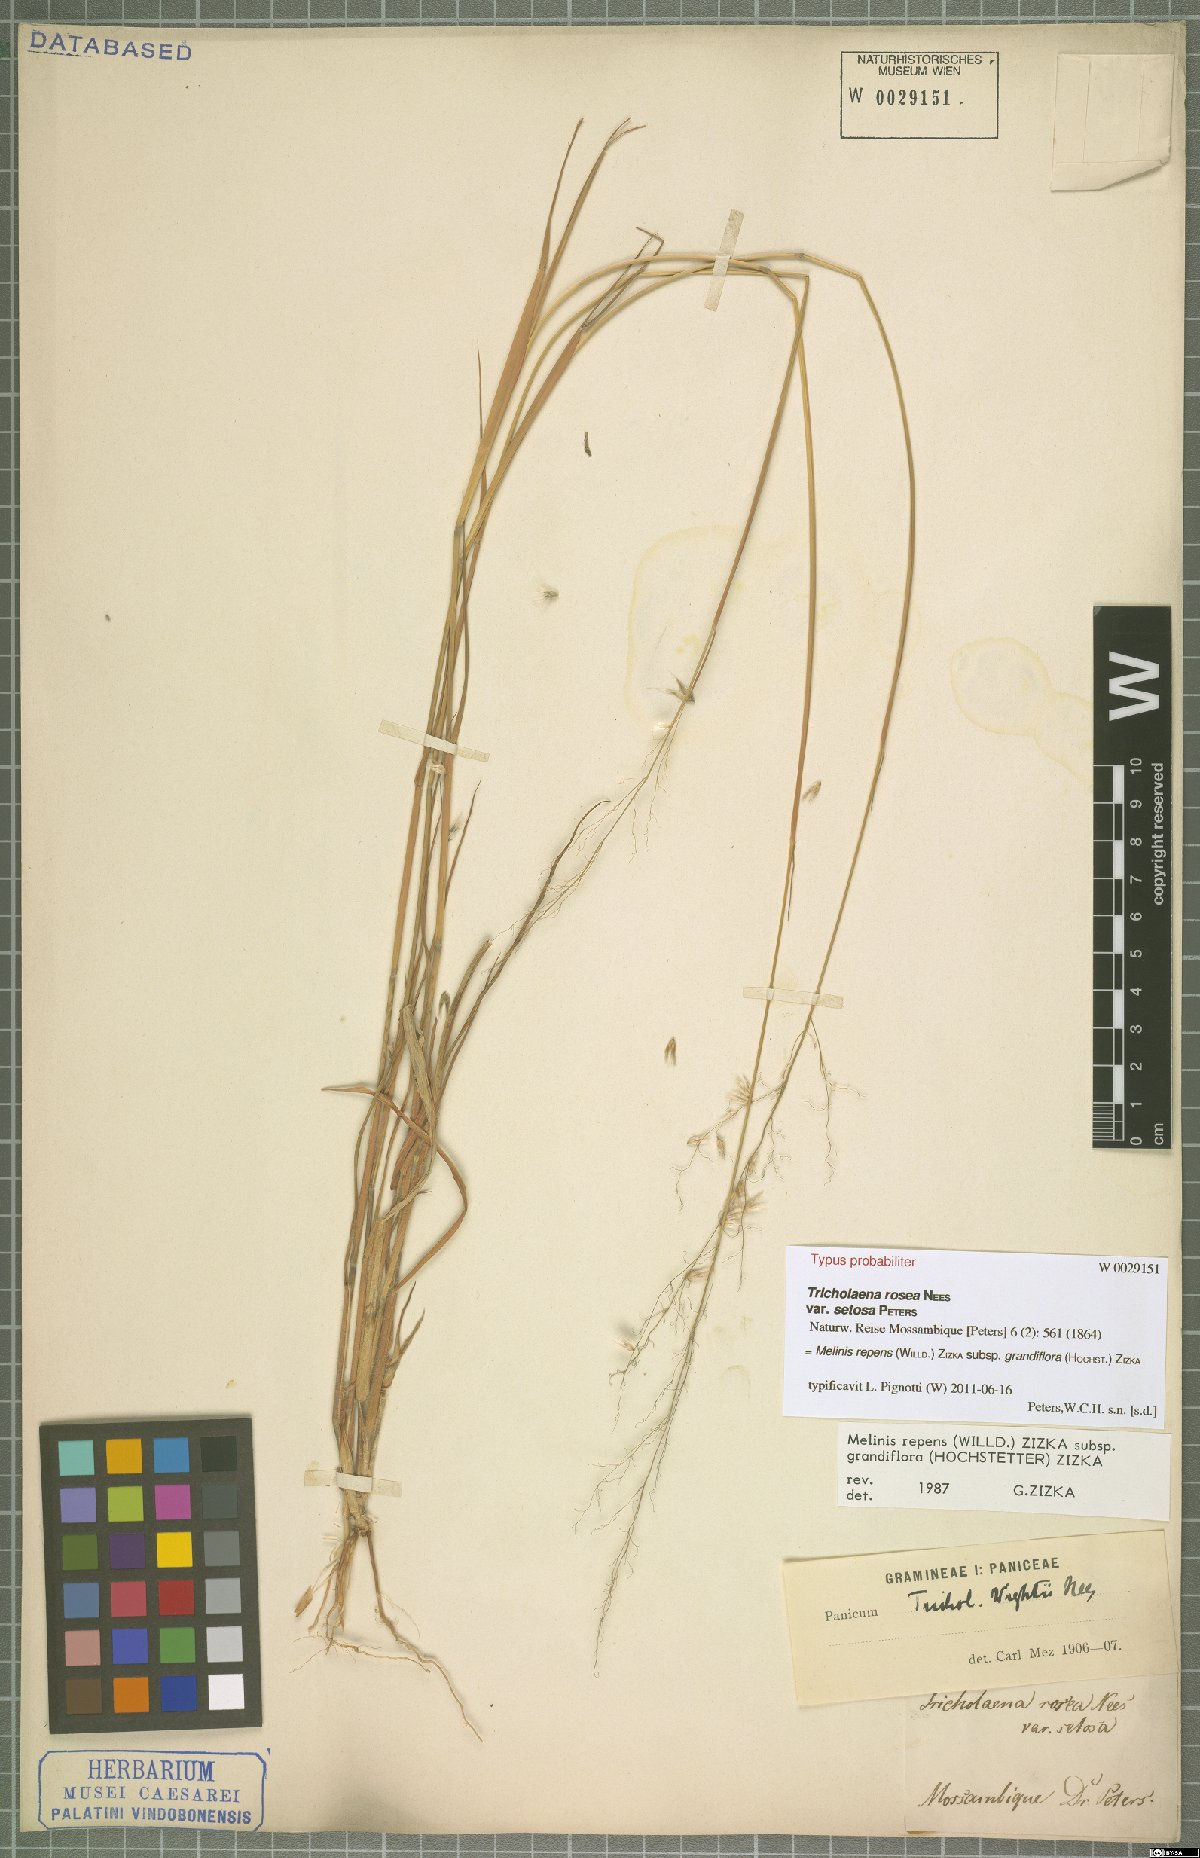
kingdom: Plantae
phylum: Tracheophyta
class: Liliopsida
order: Poales
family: Poaceae
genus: Melinis
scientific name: Melinis repens
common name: Rose natal grass
